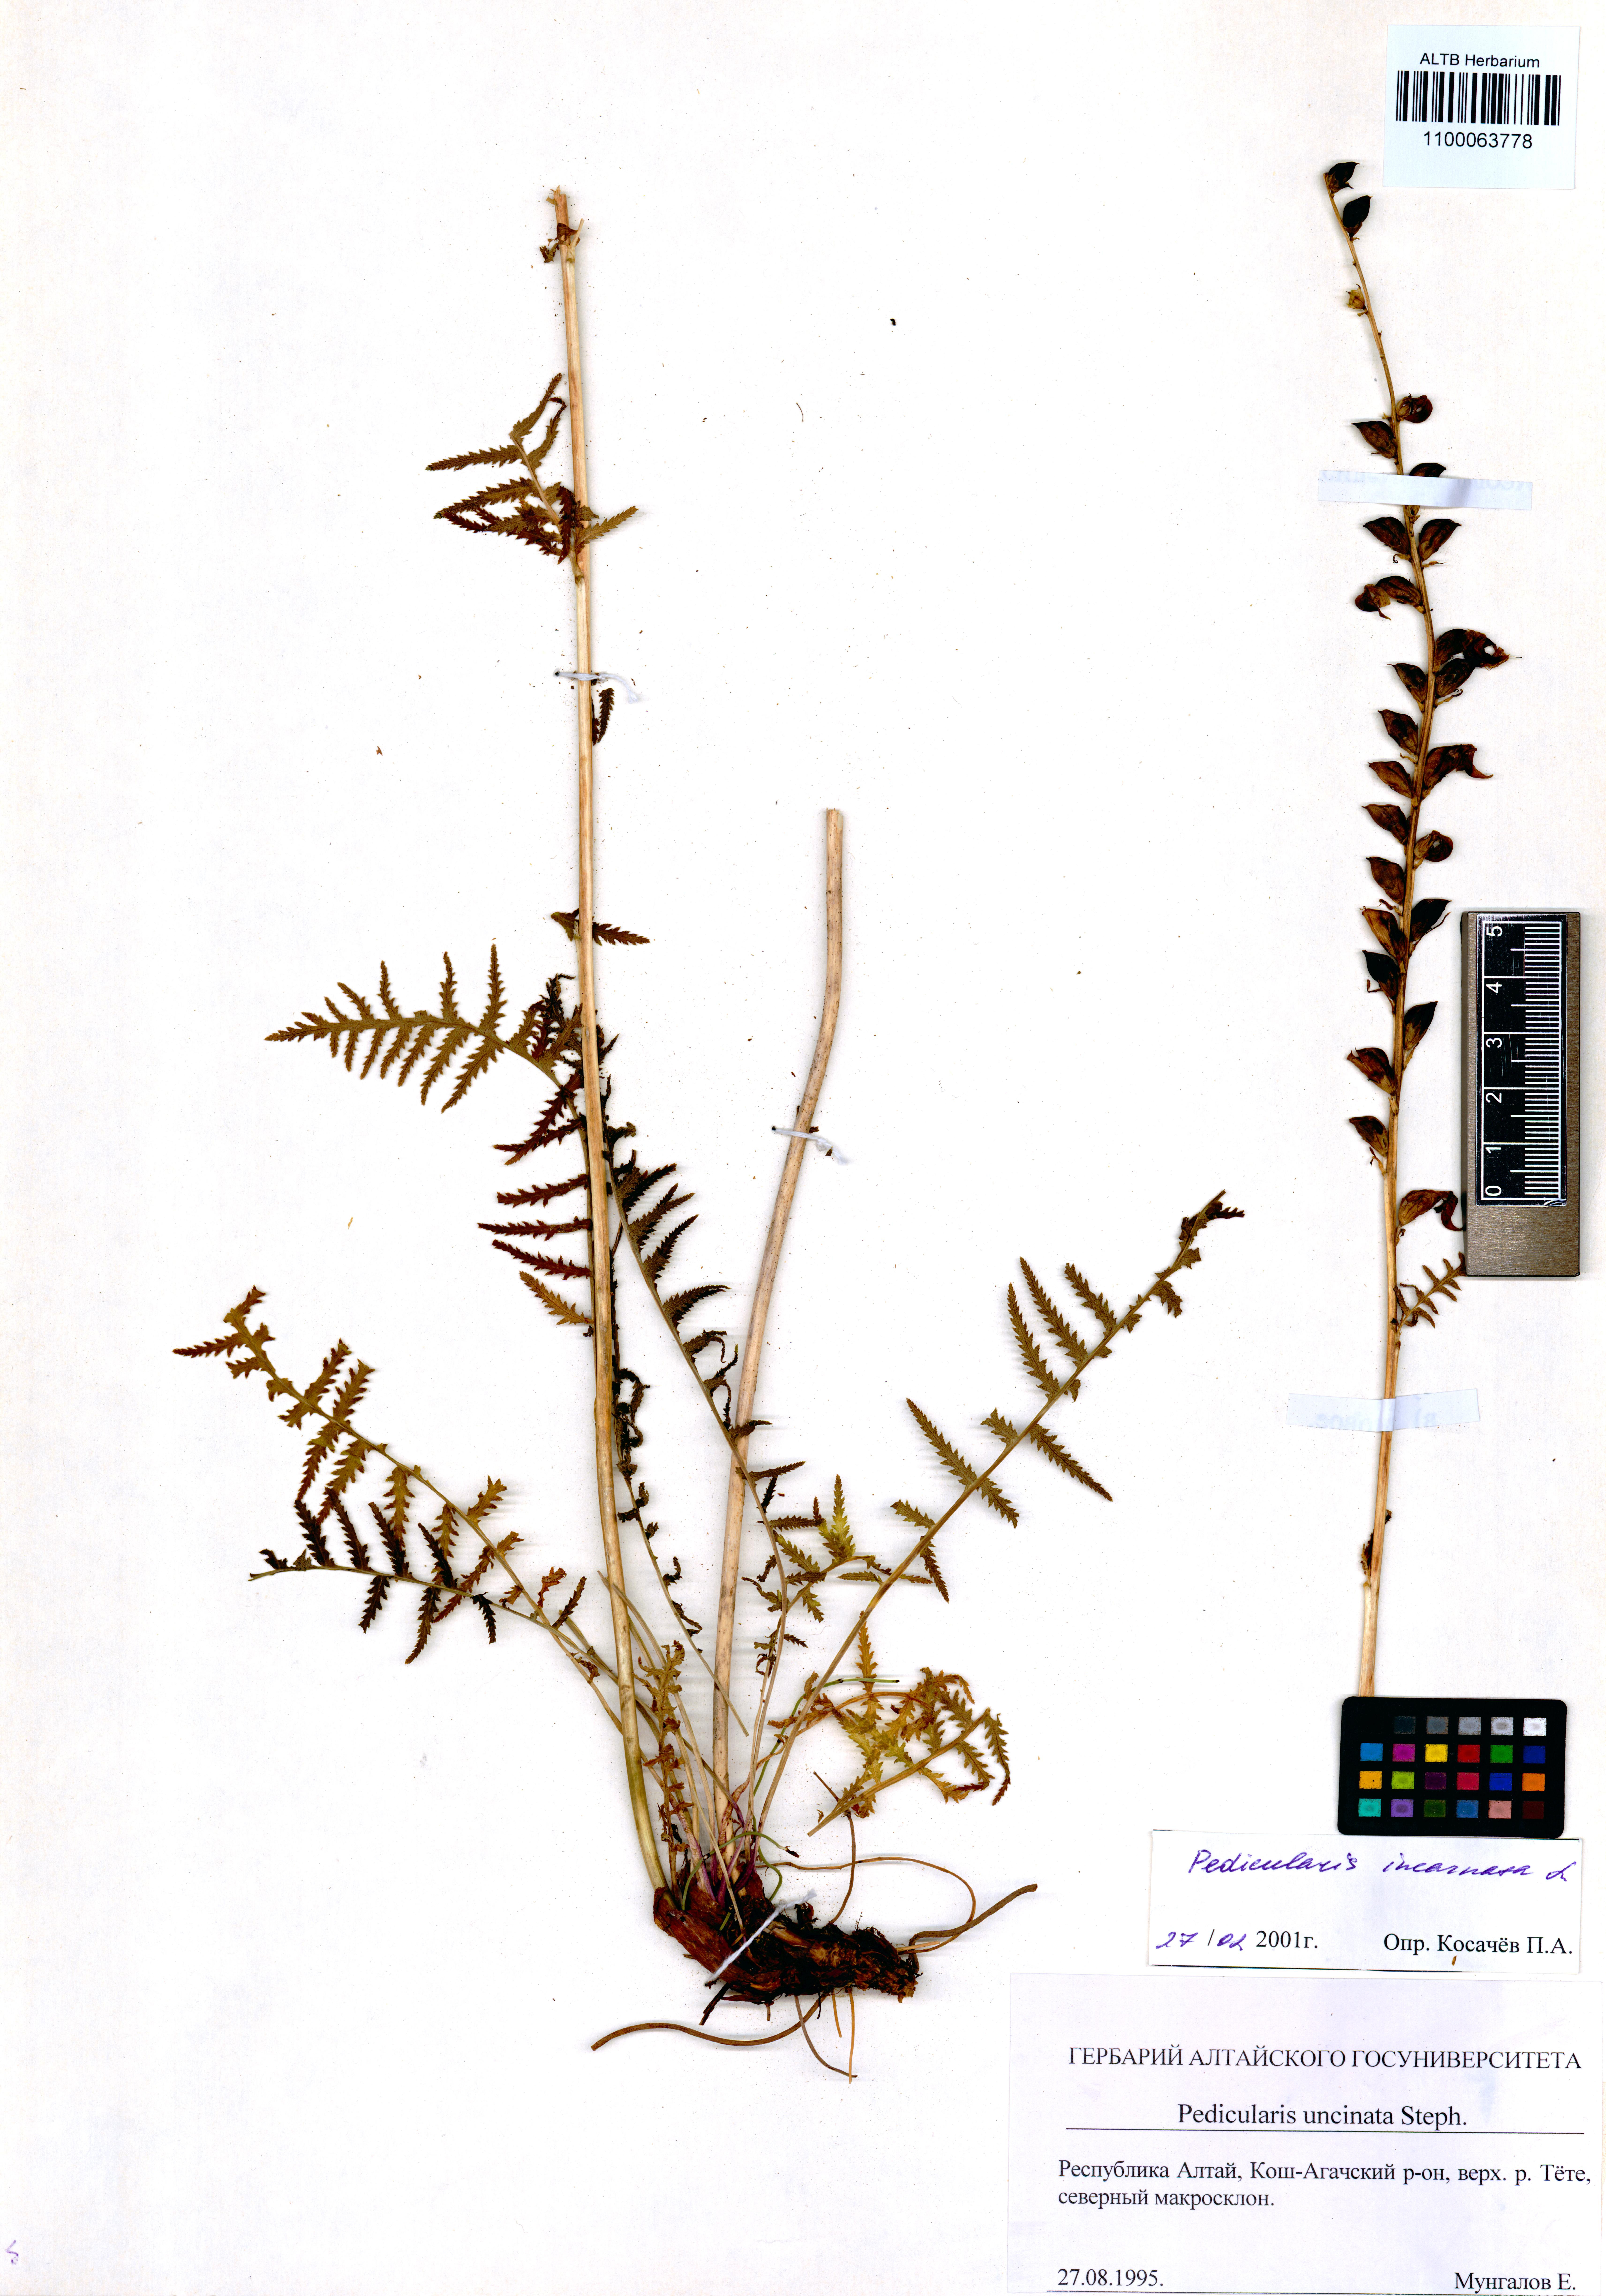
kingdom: Plantae
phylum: Tracheophyta
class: Magnoliopsida
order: Lamiales
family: Orobanchaceae
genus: Pedicularis
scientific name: Pedicularis incarnata
